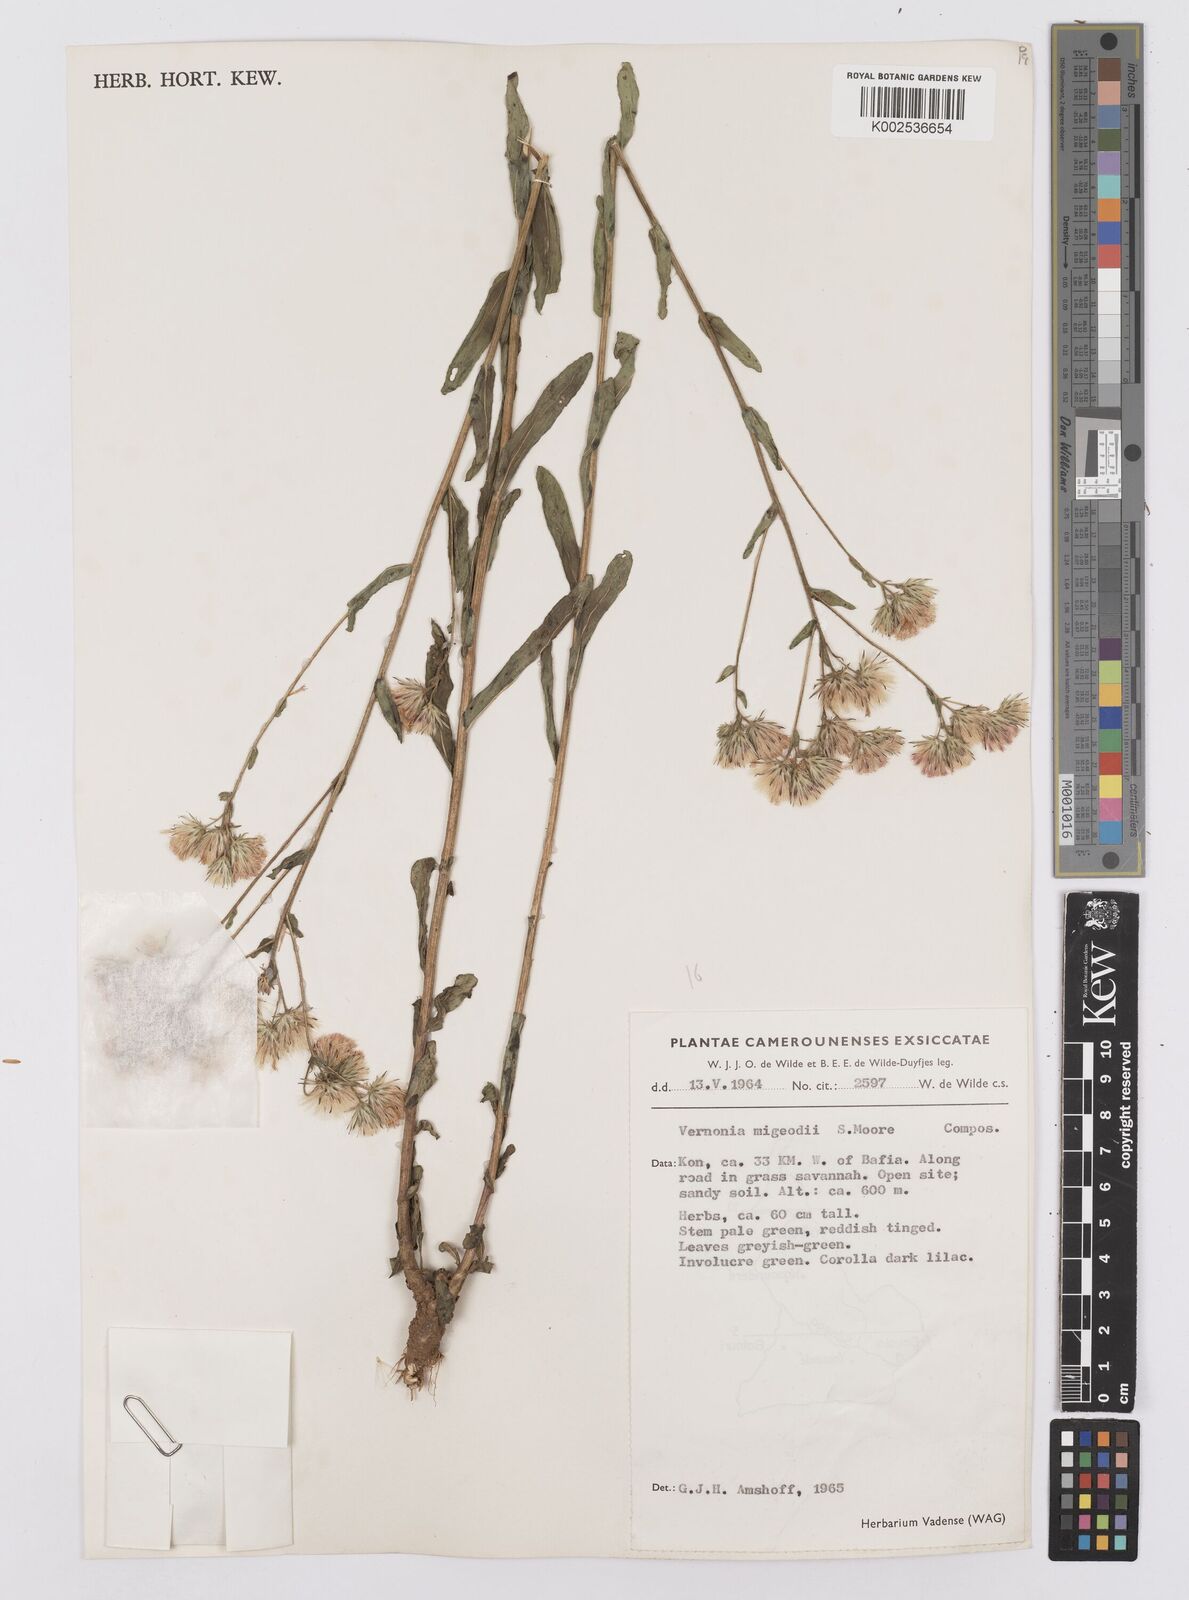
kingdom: Plantae
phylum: Tracheophyta
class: Magnoliopsida
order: Asterales
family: Asteraceae
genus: Vernoniastrum
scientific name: Vernoniastrum migeodii
